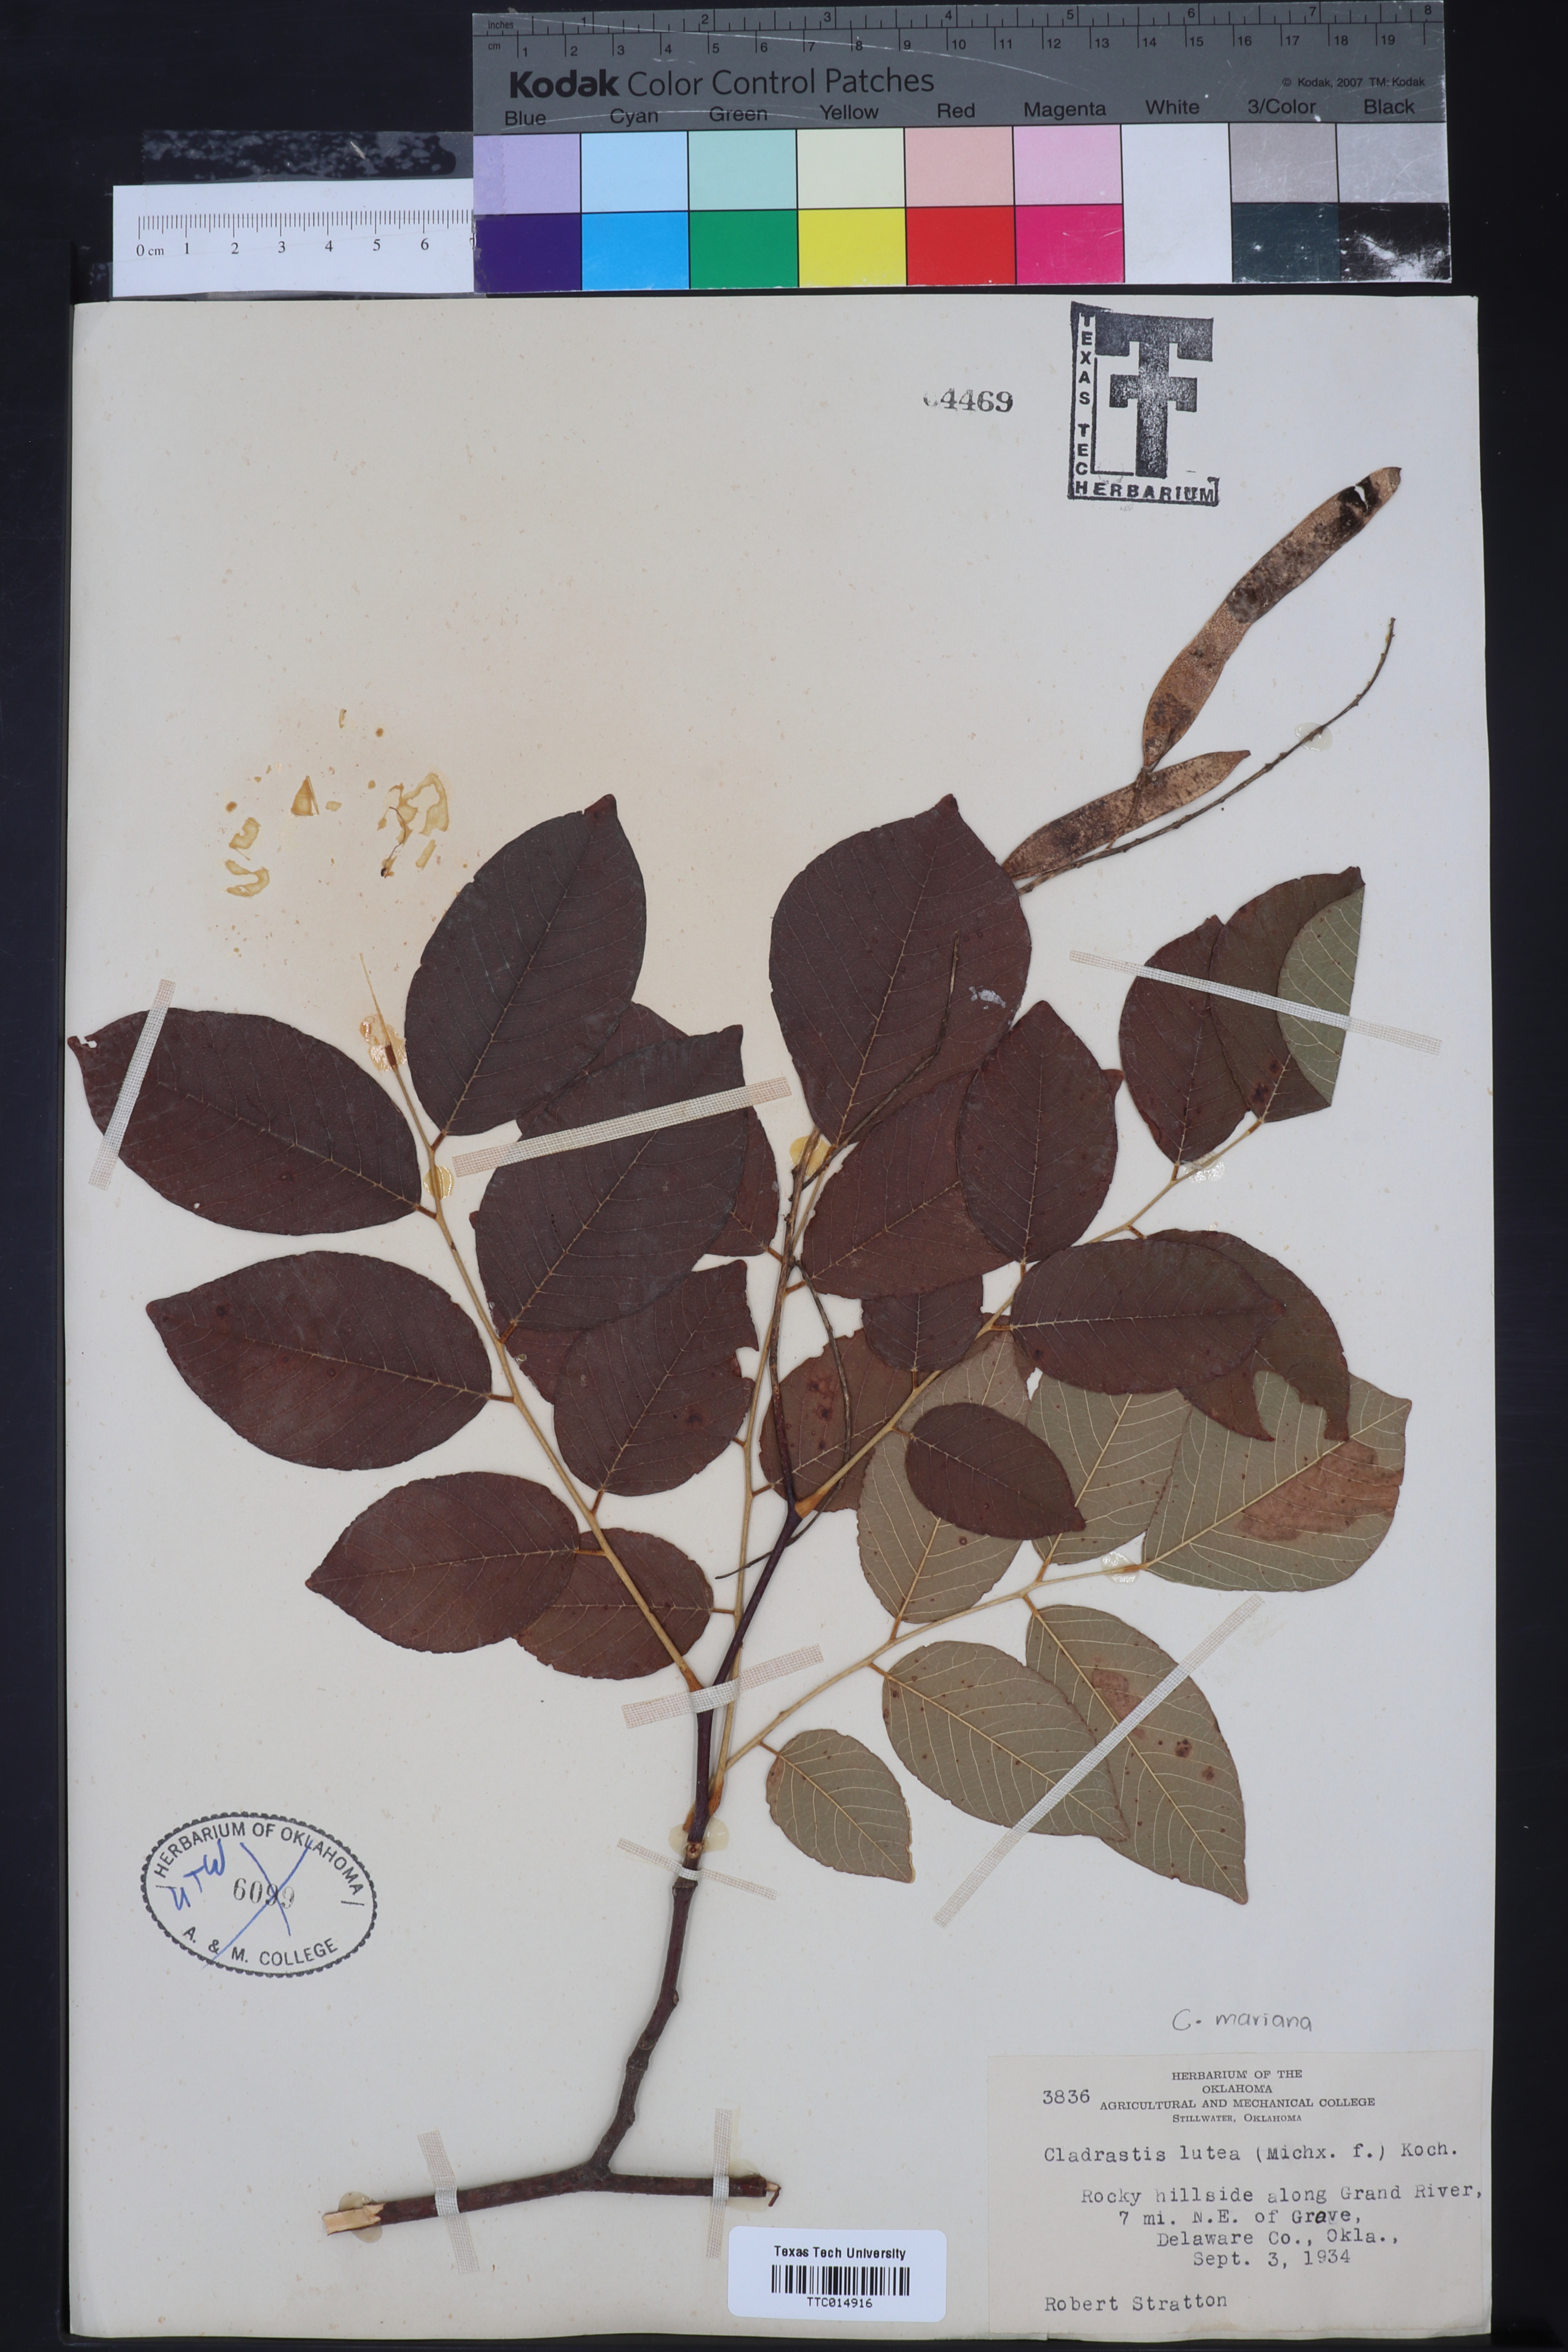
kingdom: Plantae
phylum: Tracheophyta
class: Magnoliopsida
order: Fabales
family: Fabaceae
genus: Cladrastis
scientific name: Cladrastis kentukea
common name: Kentucky yellow-wood
